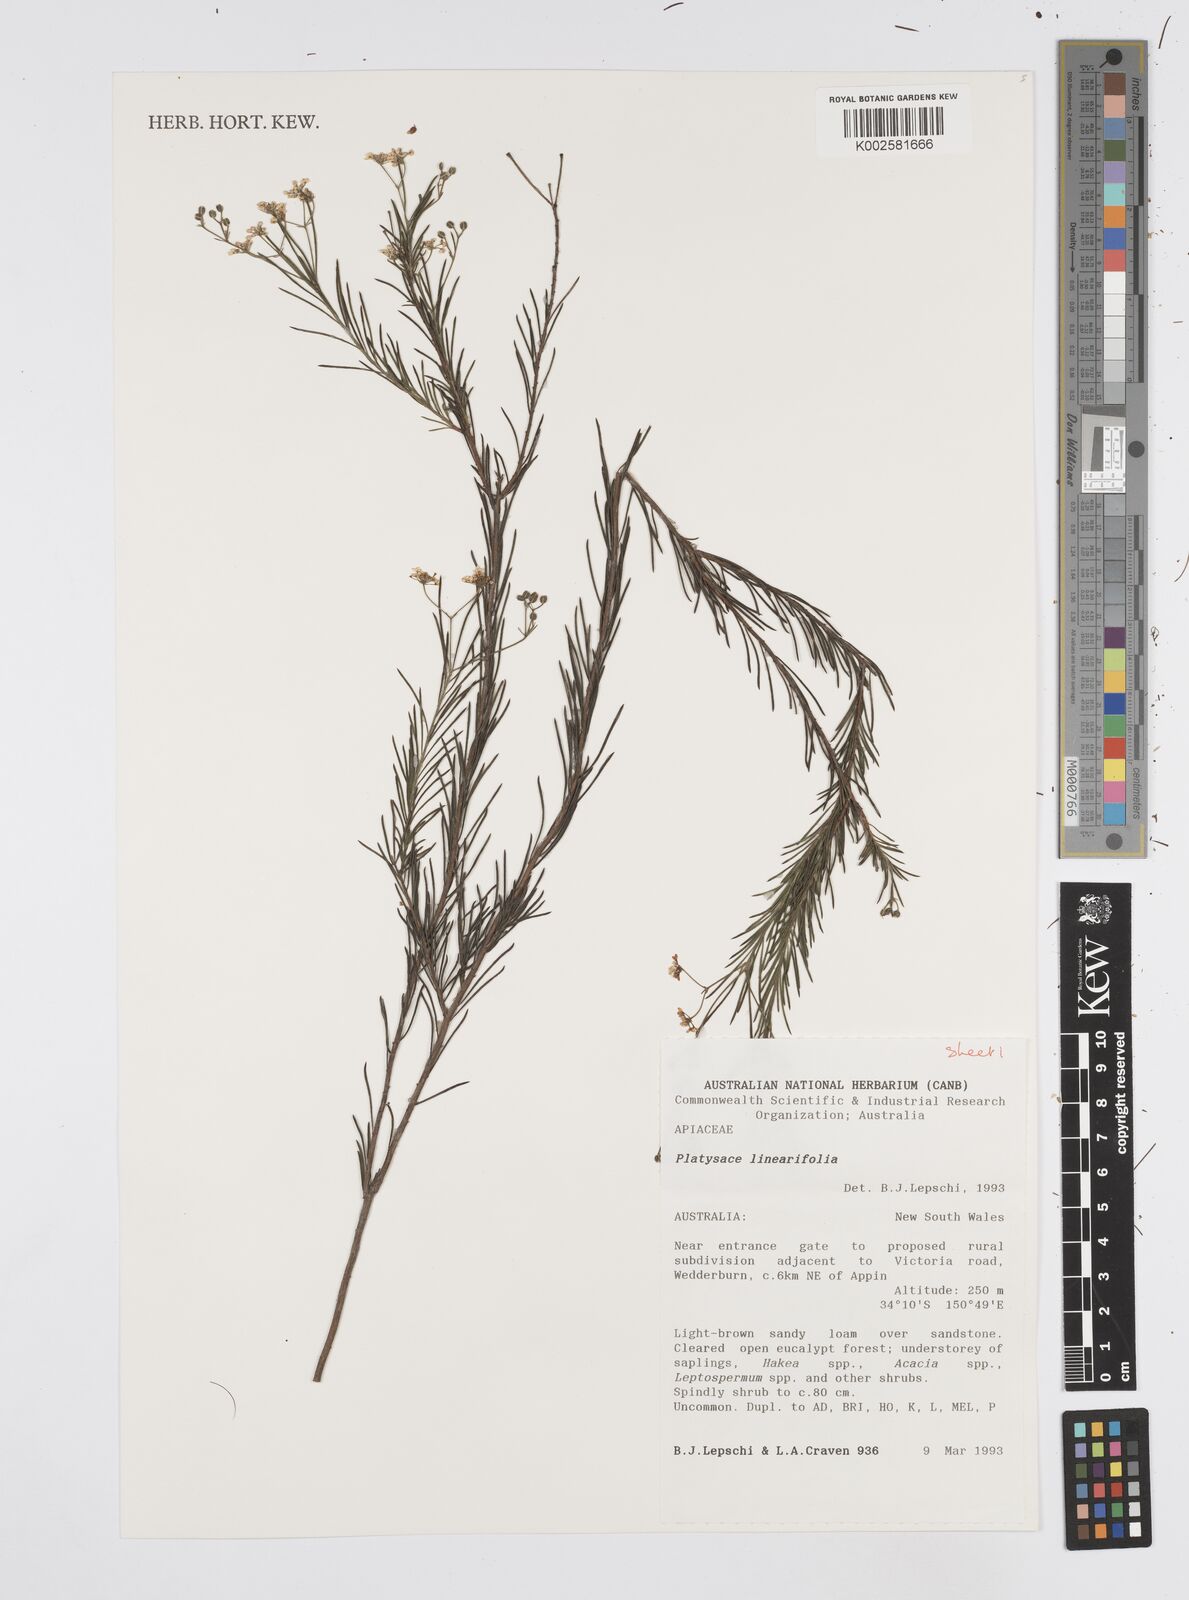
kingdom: Plantae
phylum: Tracheophyta
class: Magnoliopsida
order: Apiales
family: Apiaceae
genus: Platysace
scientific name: Platysace linearifolia
